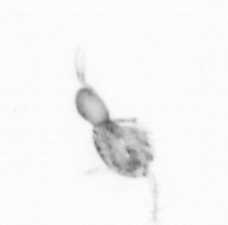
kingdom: Animalia
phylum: Arthropoda
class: Copepoda
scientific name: Copepoda
